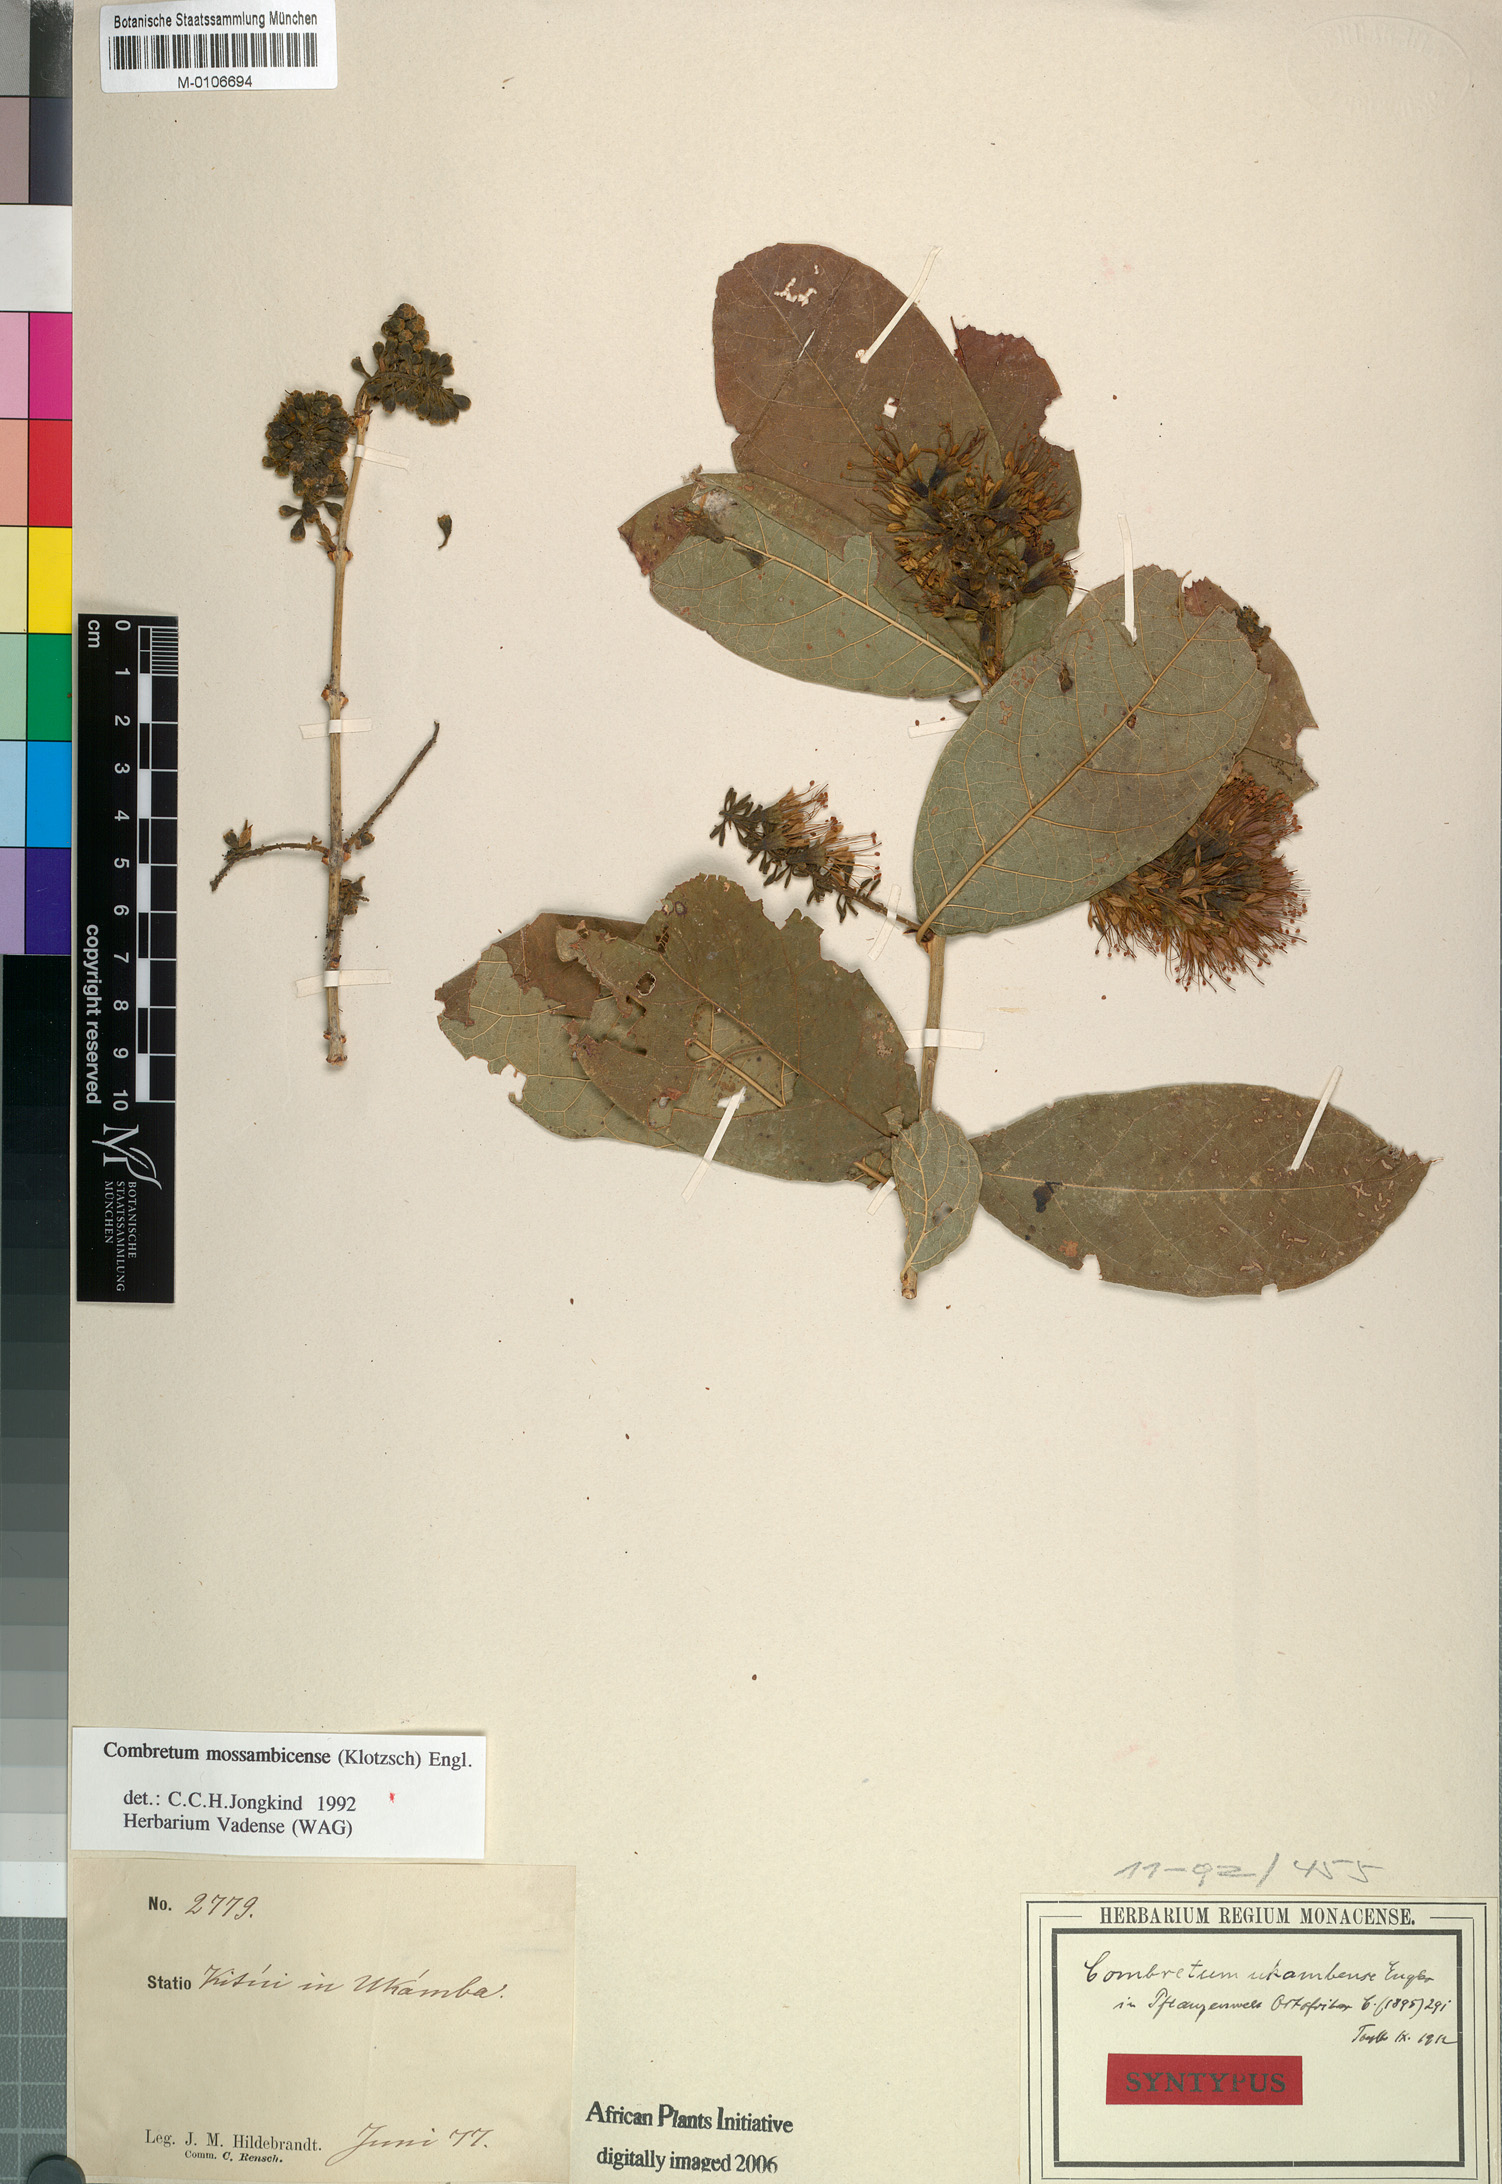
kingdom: Plantae
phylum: Tracheophyta
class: Magnoliopsida
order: Myrtales
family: Combretaceae
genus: Combretum
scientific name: Combretum mossambicense
